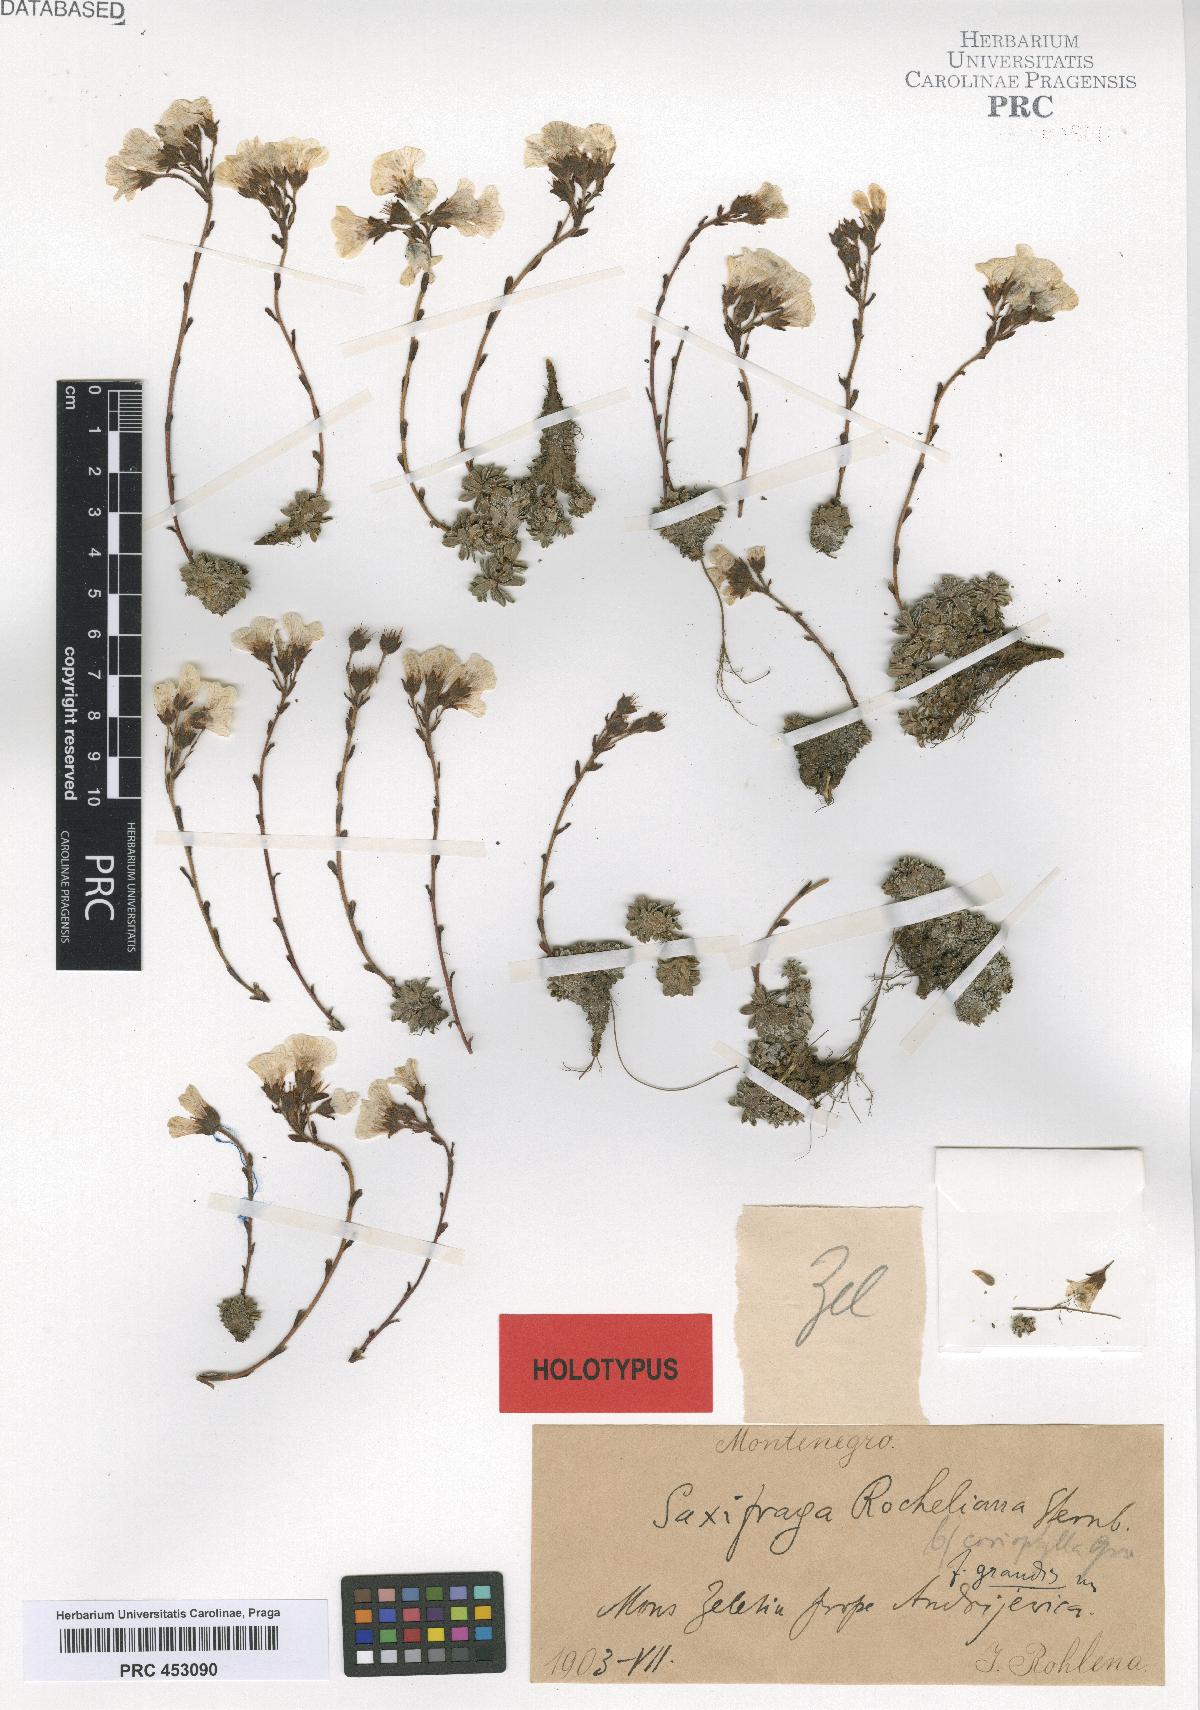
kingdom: Plantae
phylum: Tracheophyta
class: Magnoliopsida
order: Saxifragales
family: Saxifragaceae
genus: Saxifraga
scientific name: Saxifraga marginata
